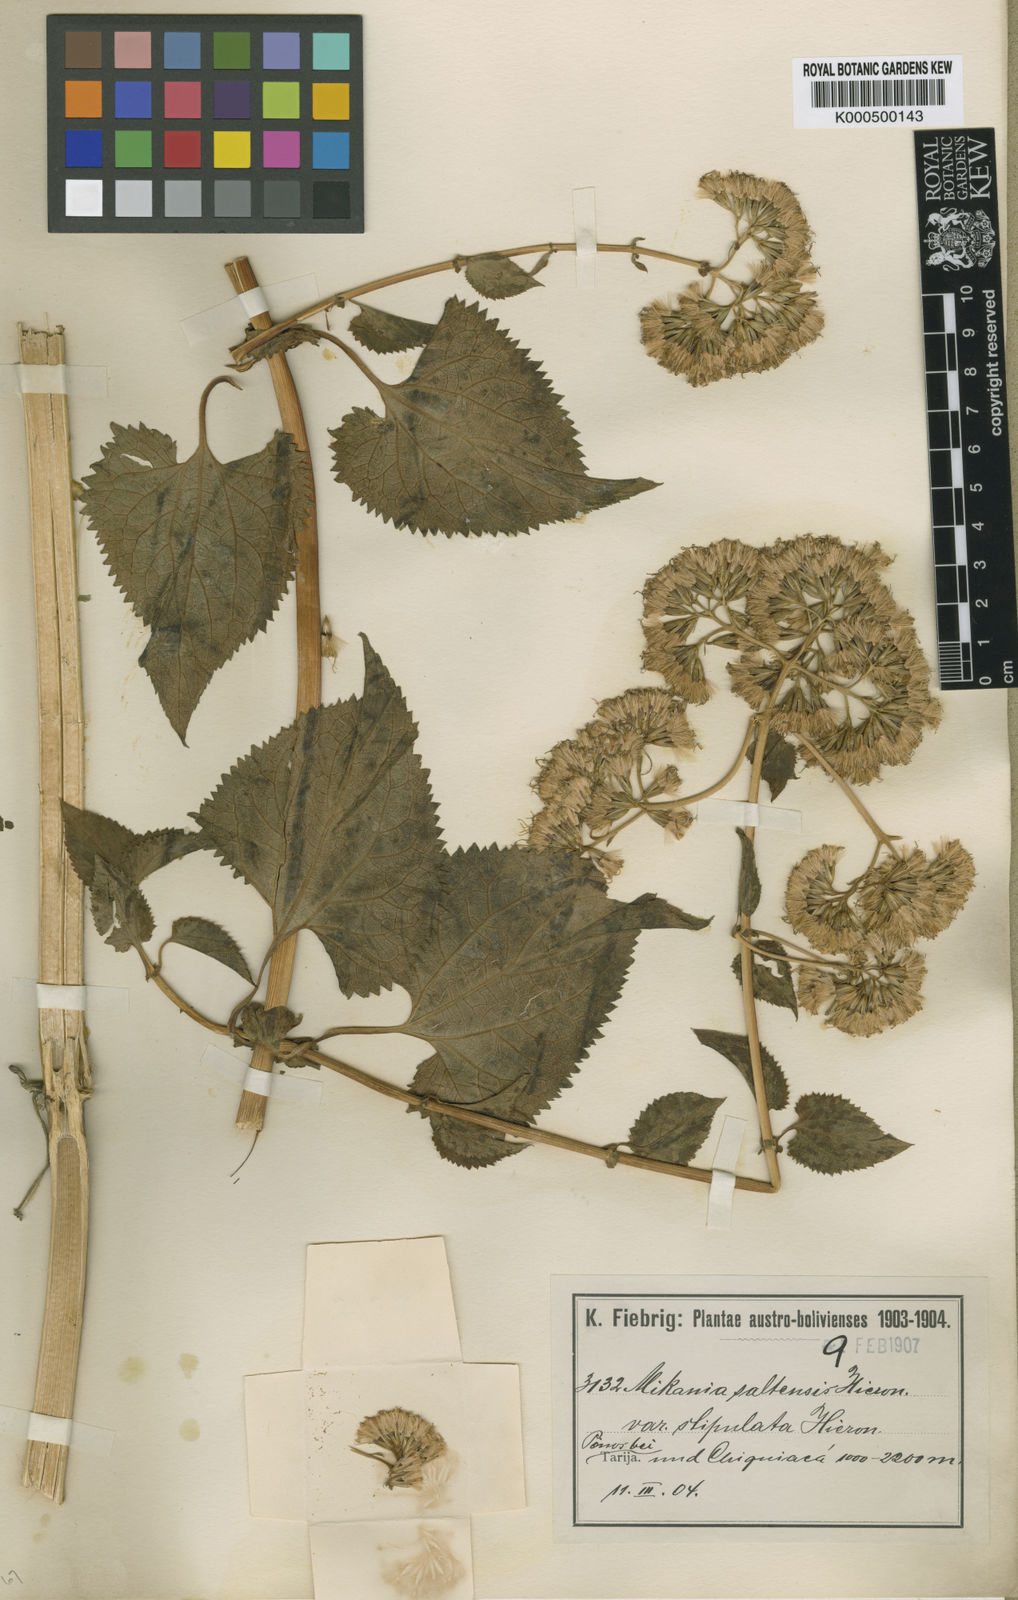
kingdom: Plantae
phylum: Tracheophyta
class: Magnoliopsida
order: Asterales
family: Asteraceae
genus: Mikania
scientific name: Mikania saltensis
